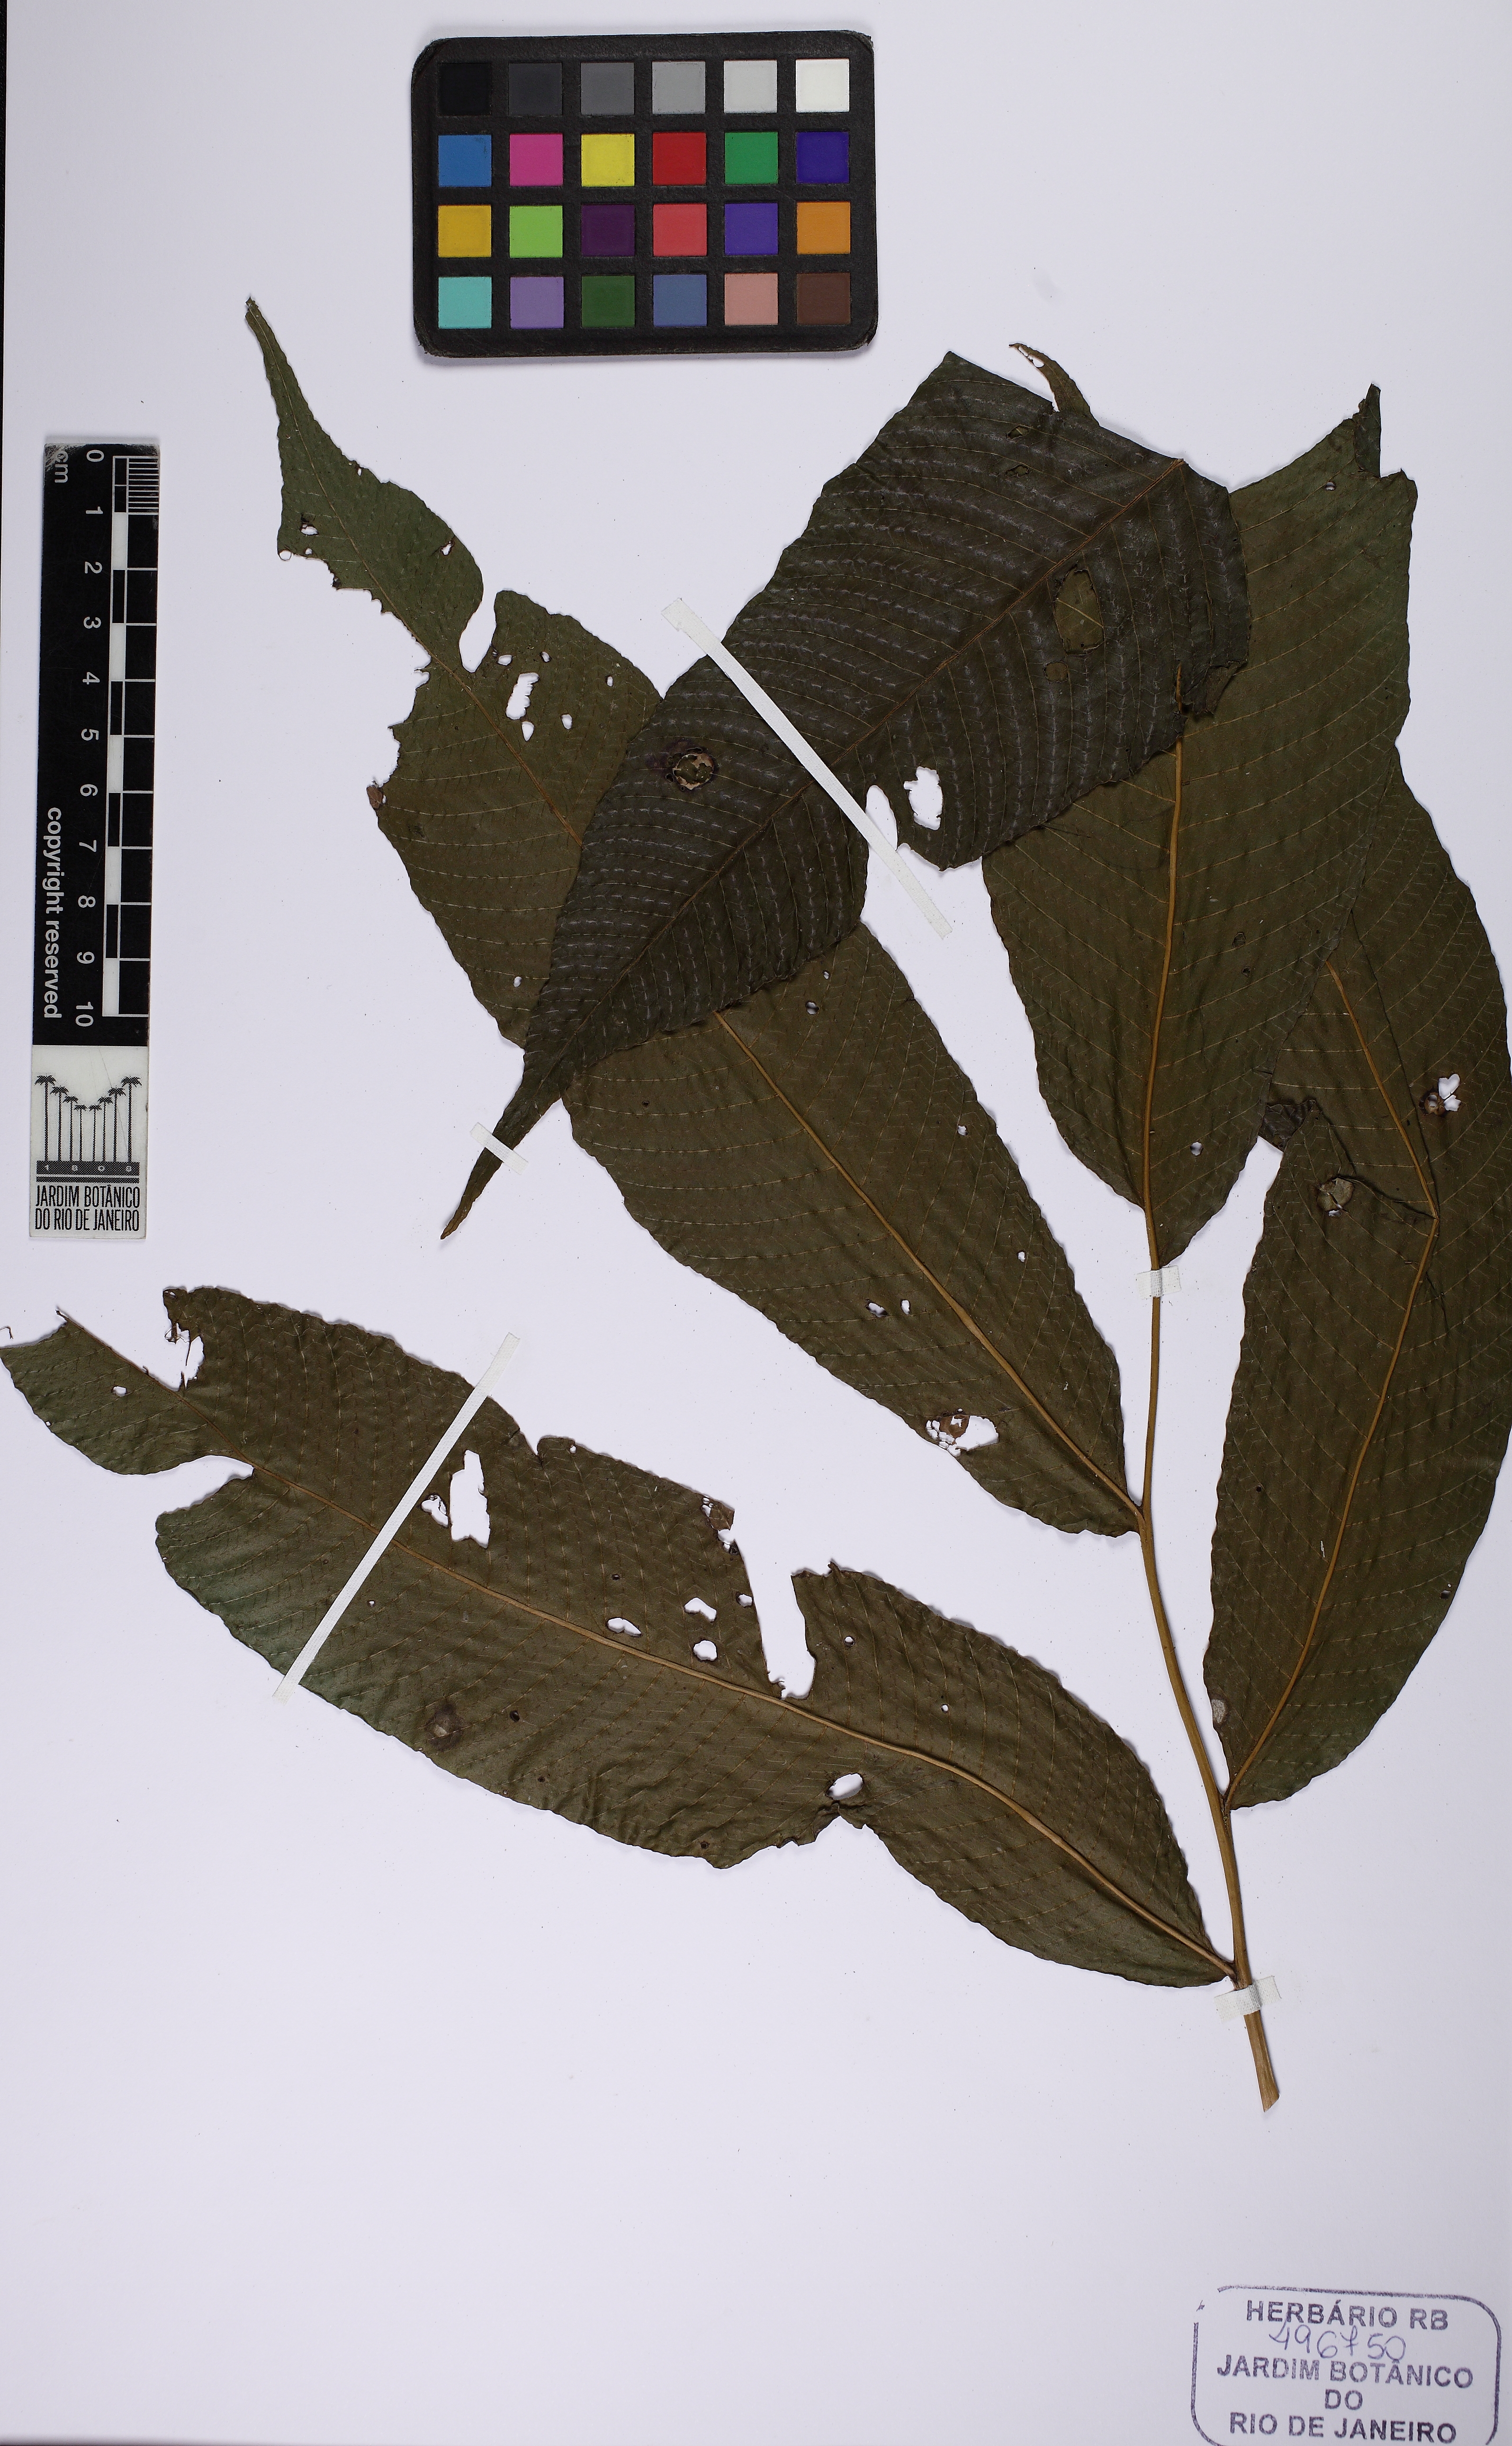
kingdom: Plantae
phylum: Tracheophyta
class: Polypodiopsida
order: Polypodiales
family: Thelypteridaceae
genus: Meniscium
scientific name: Meniscium macrophyllum
